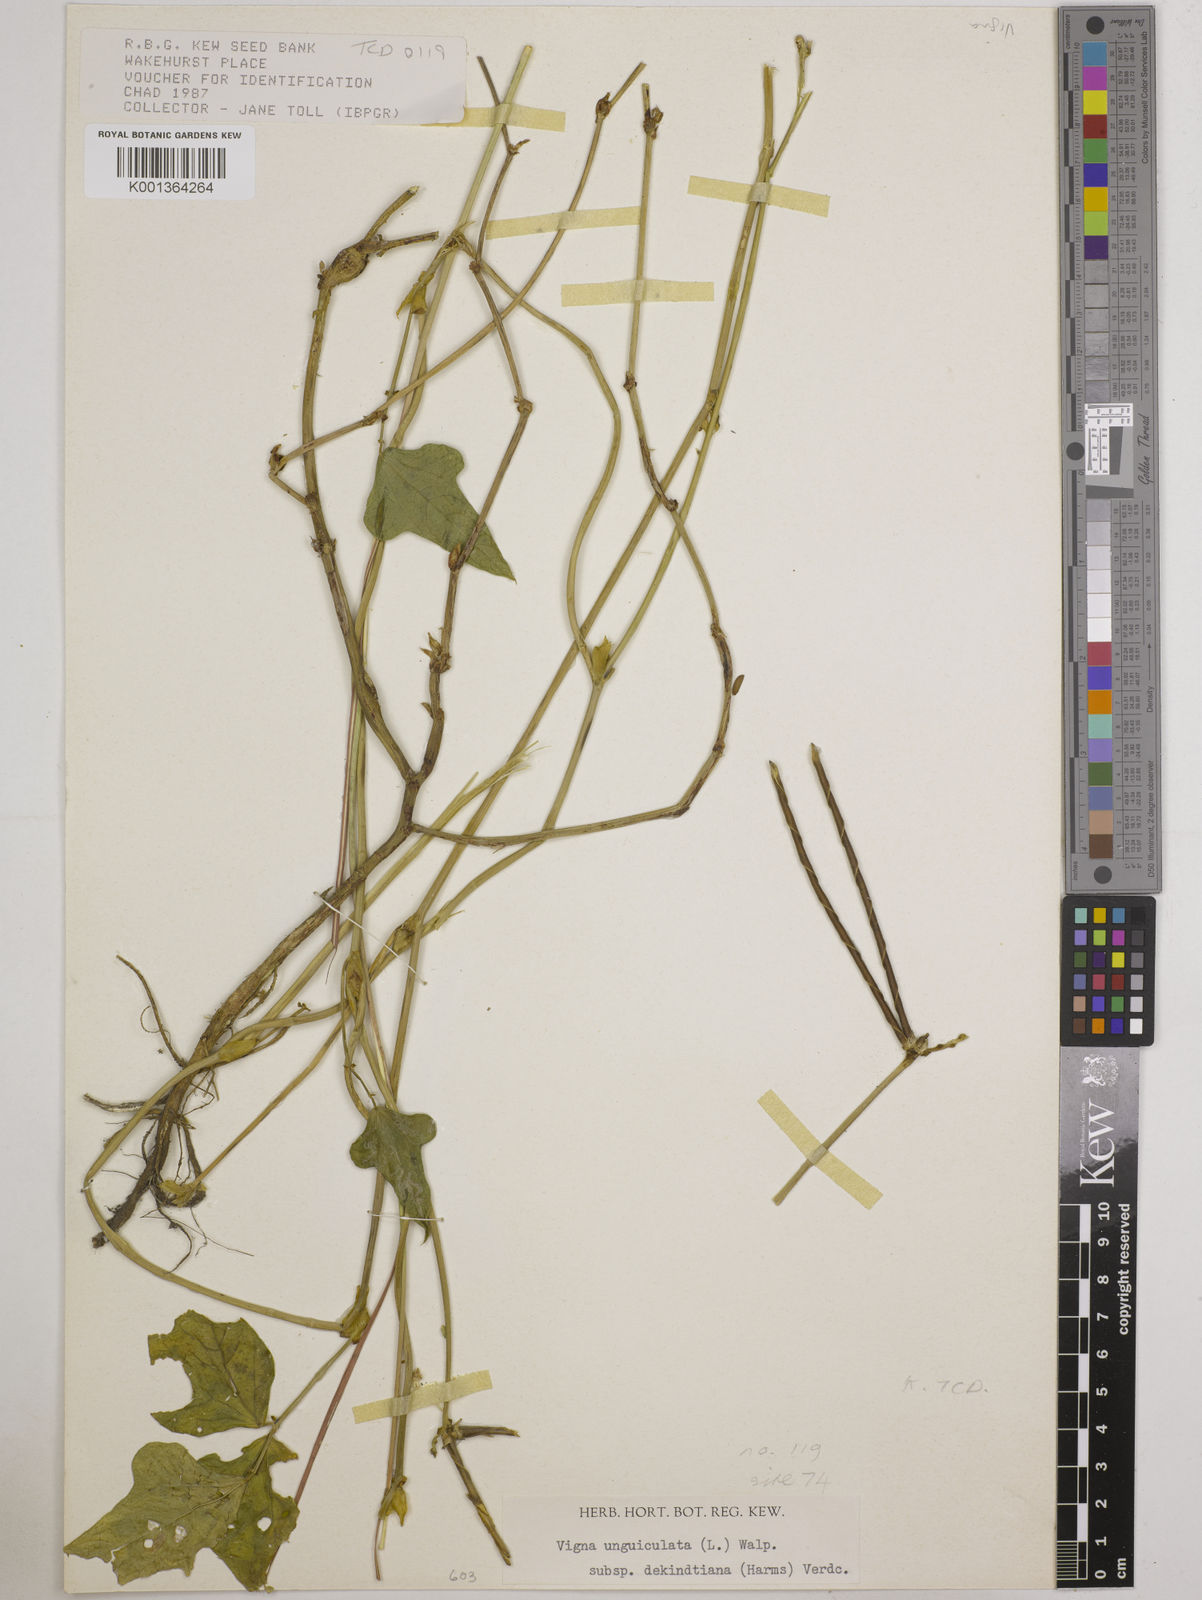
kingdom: Plantae
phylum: Tracheophyta
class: Magnoliopsida
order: Fabales
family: Fabaceae
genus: Vigna
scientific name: Vigna
